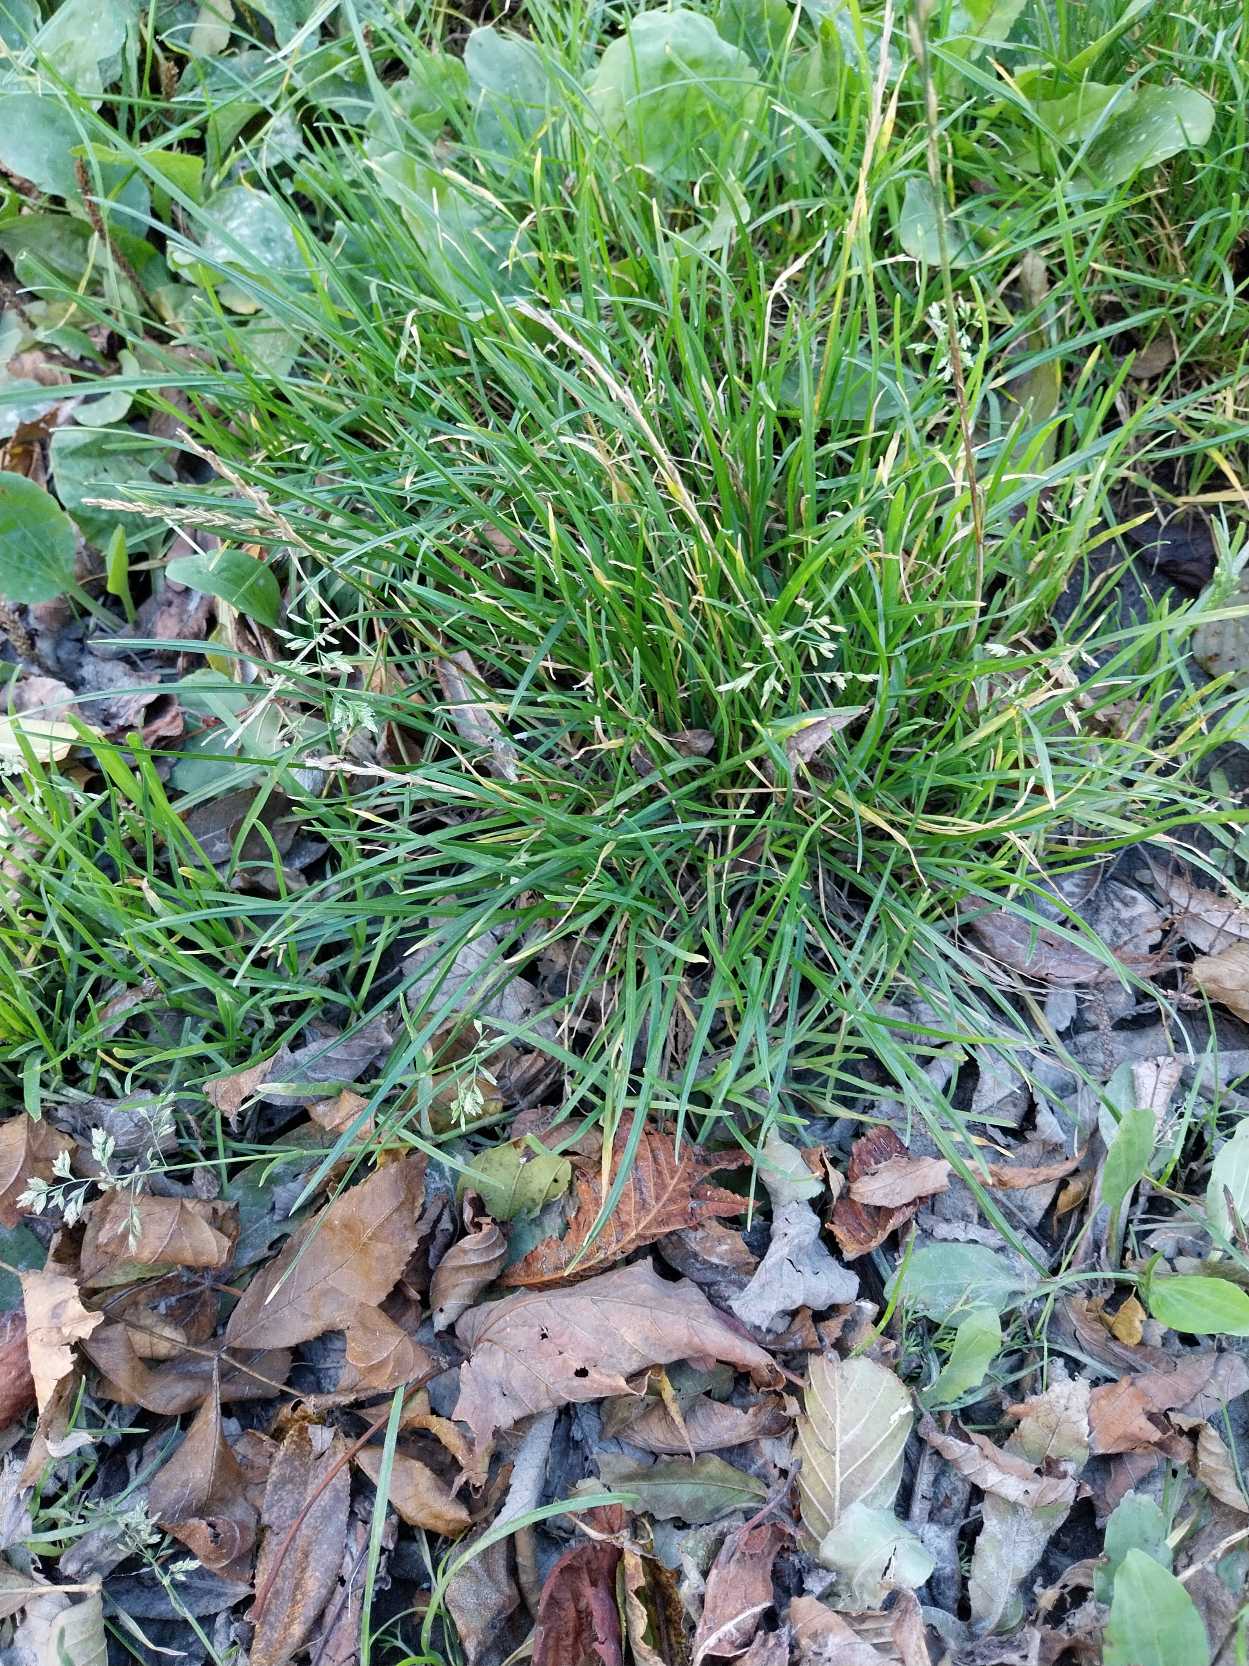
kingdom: Plantae
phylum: Tracheophyta
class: Liliopsida
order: Poales
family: Poaceae
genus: Poa
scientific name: Poa annua
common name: Enårig rapgræs
